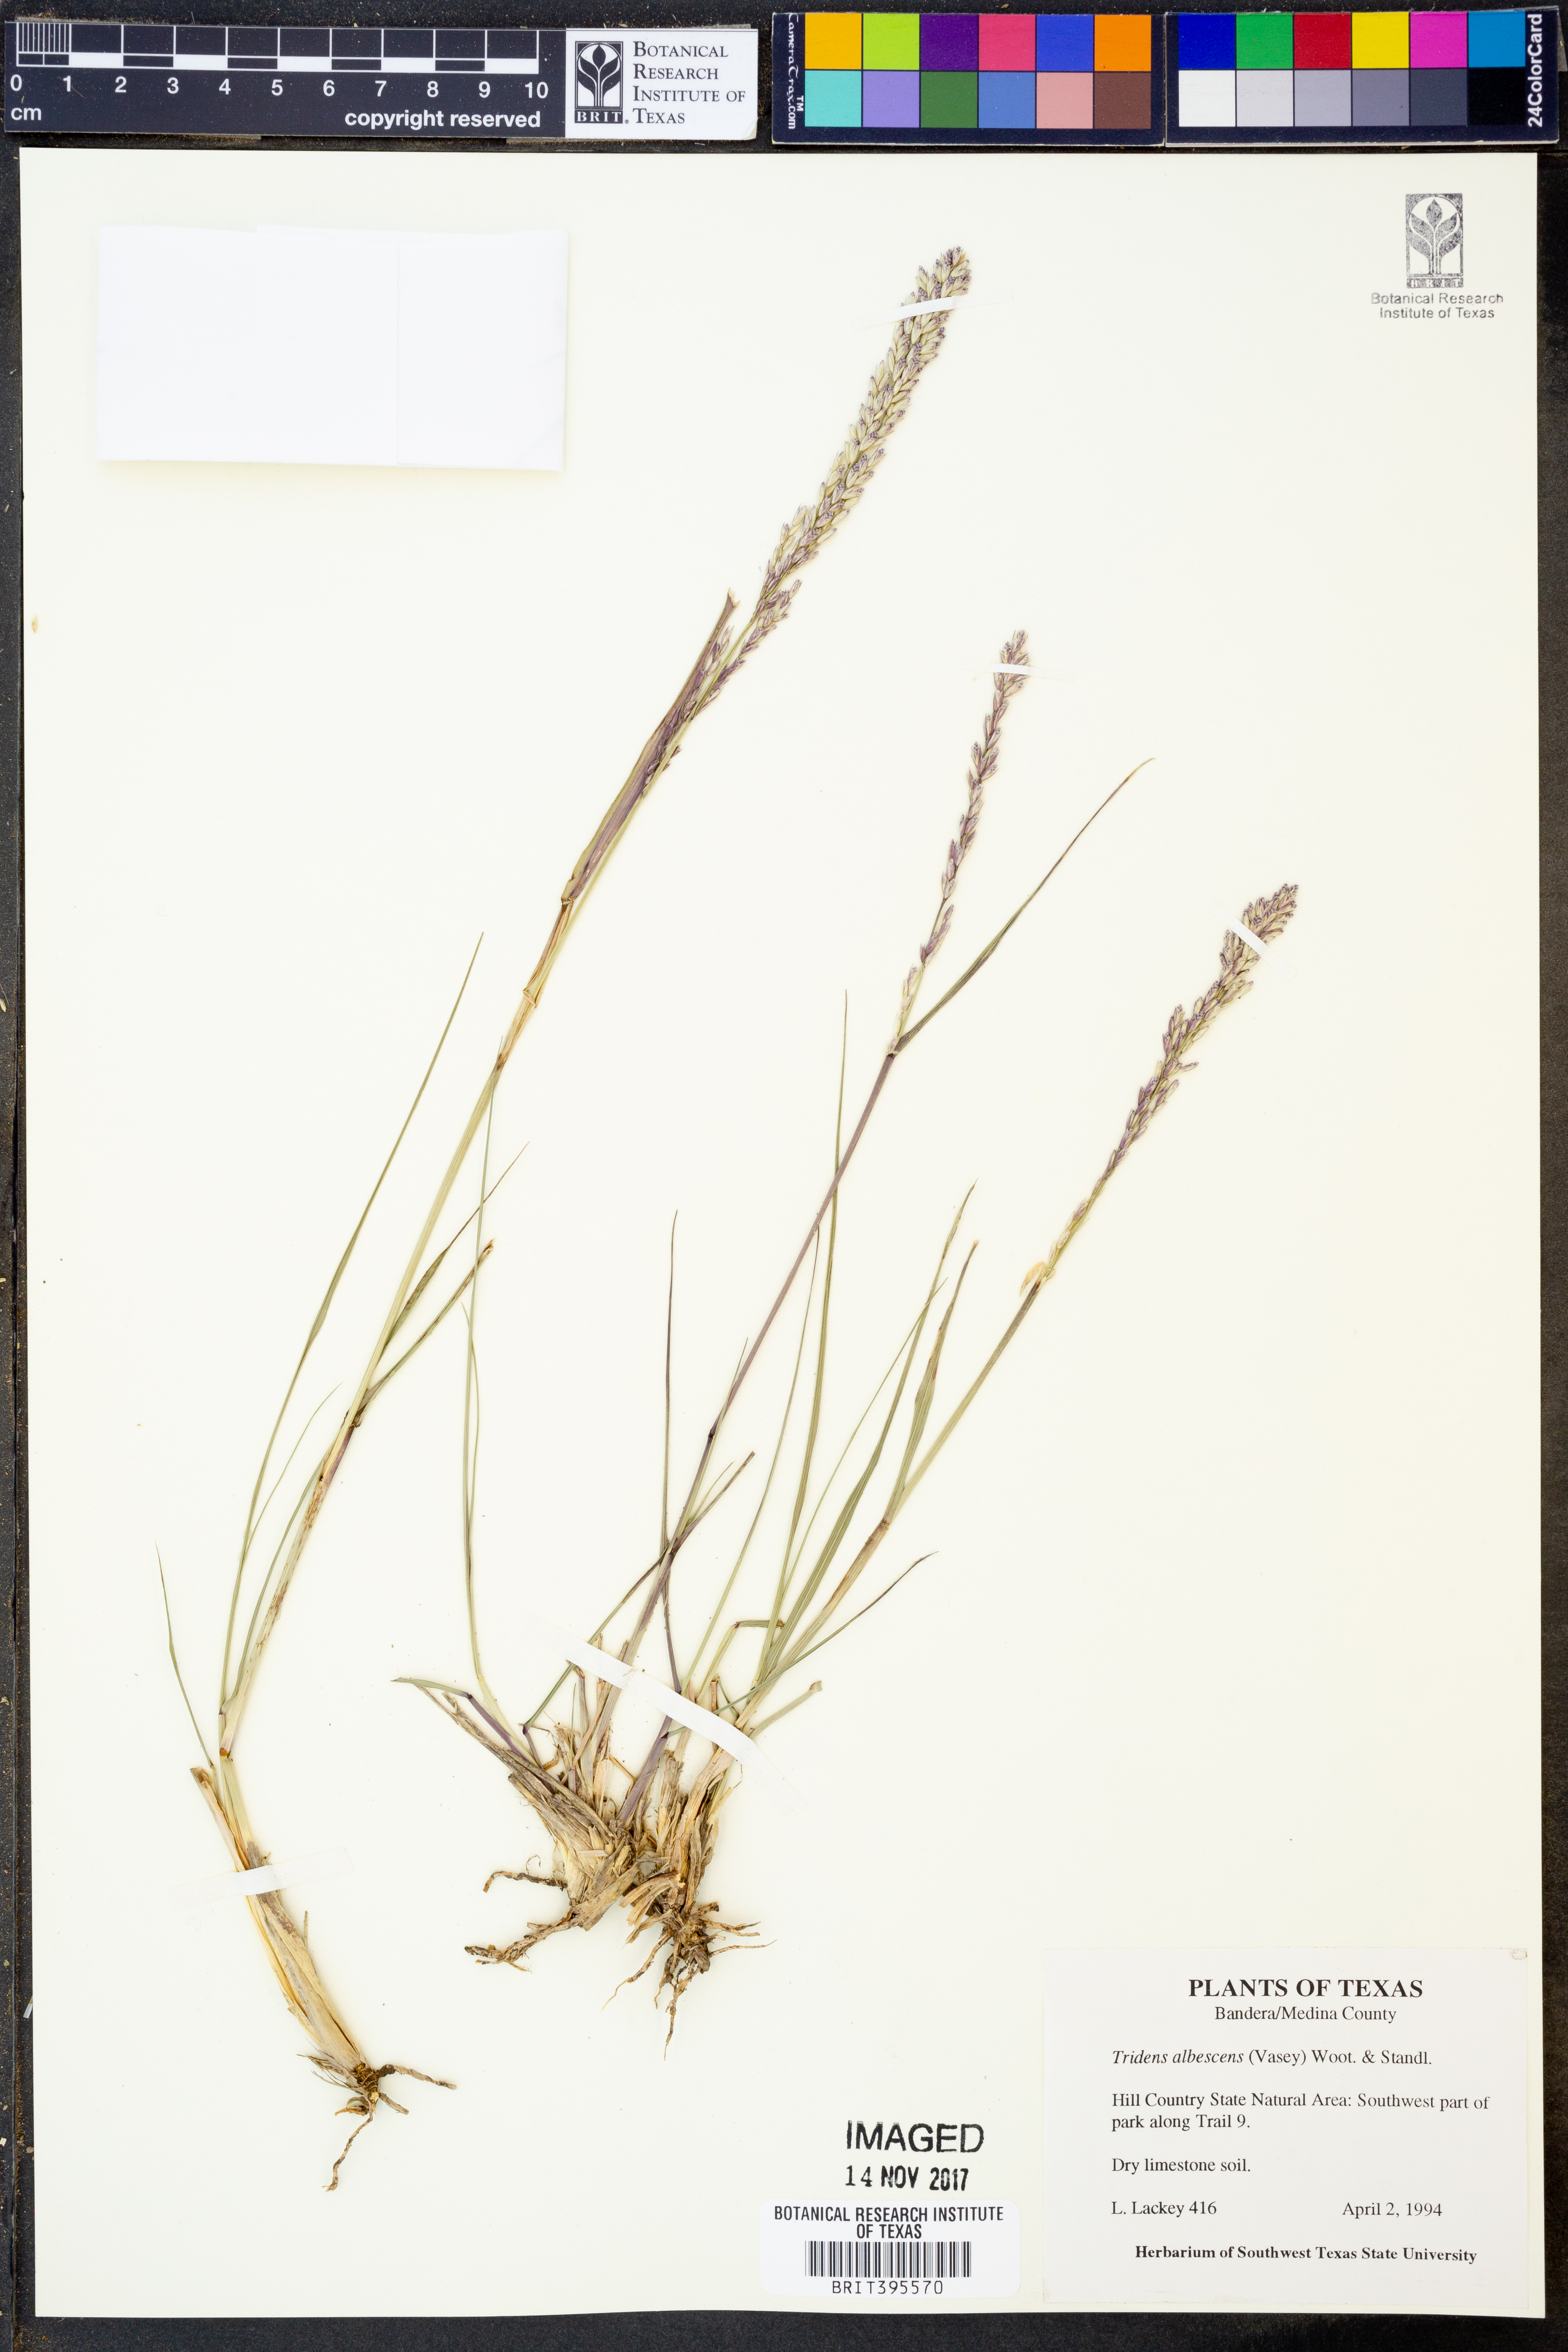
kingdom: Plantae
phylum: Tracheophyta
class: Liliopsida
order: Poales
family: Poaceae
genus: Tridens
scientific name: Tridens albescens
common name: White tridens
